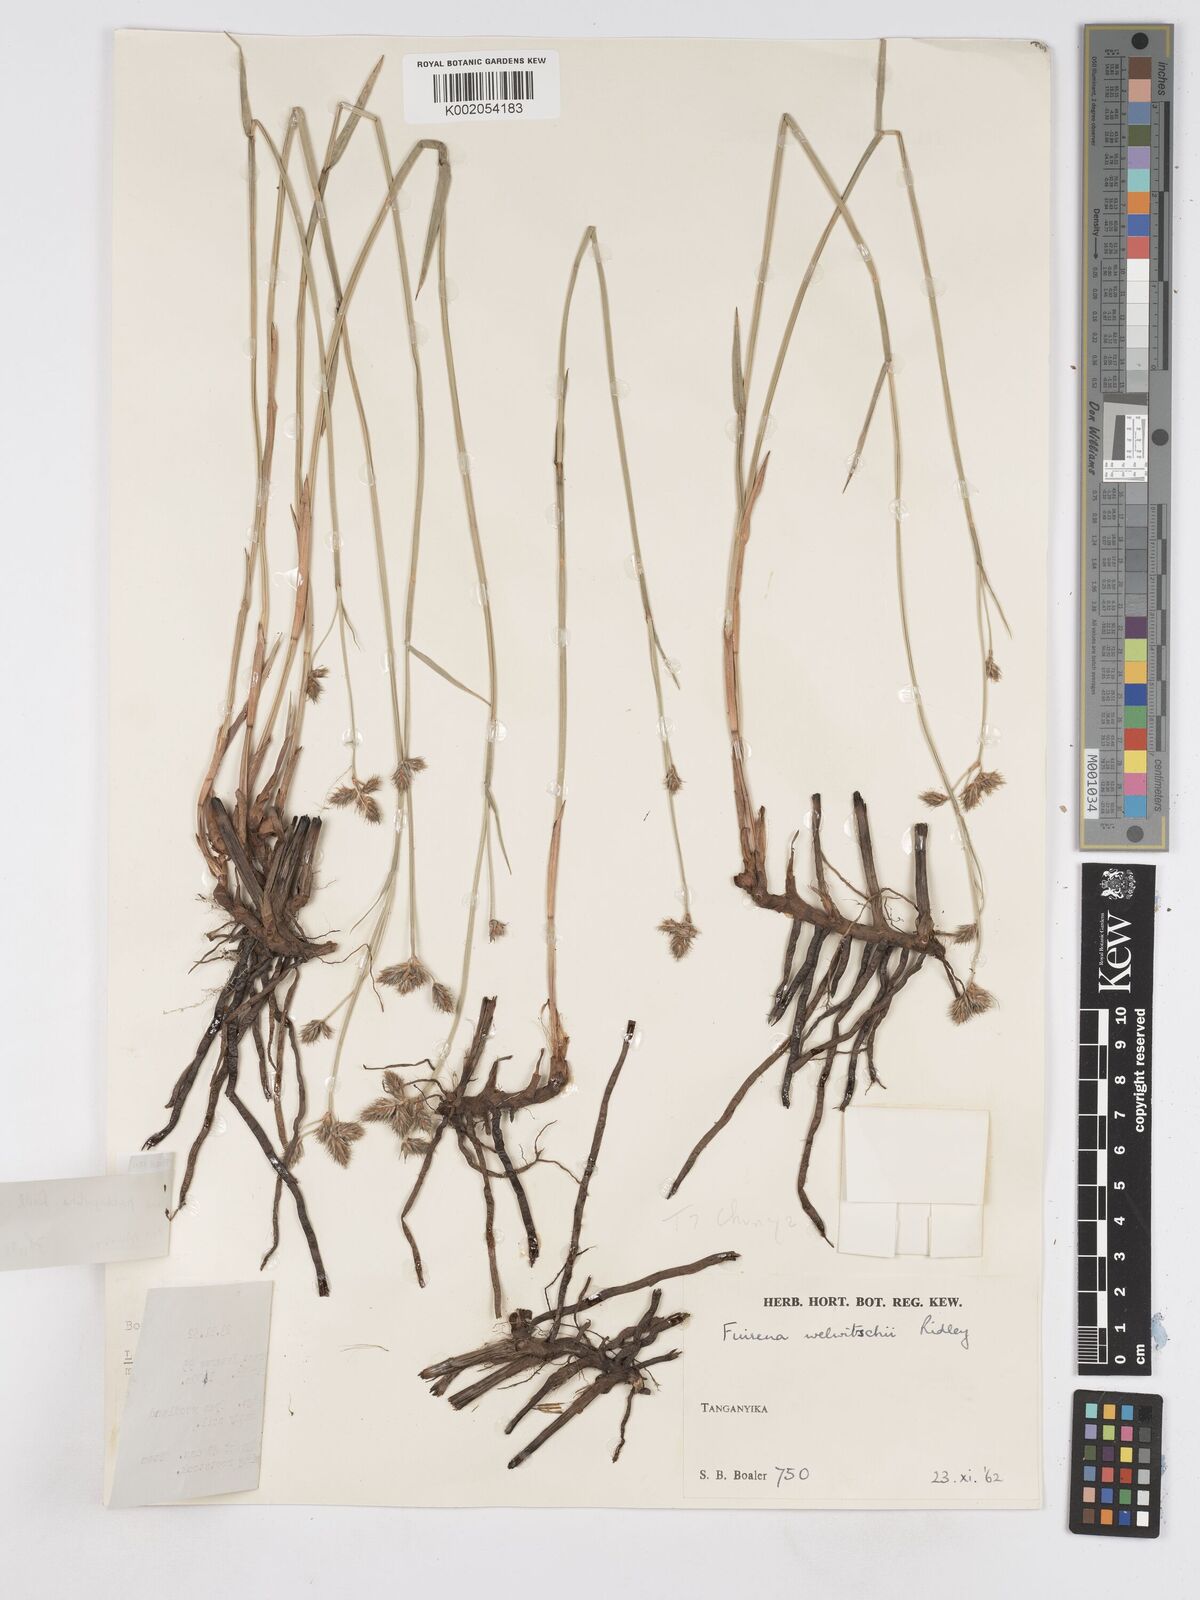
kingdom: Plantae
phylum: Tracheophyta
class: Liliopsida
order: Poales
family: Cyperaceae
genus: Fuirena
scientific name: Fuirena pachyrrhiza
